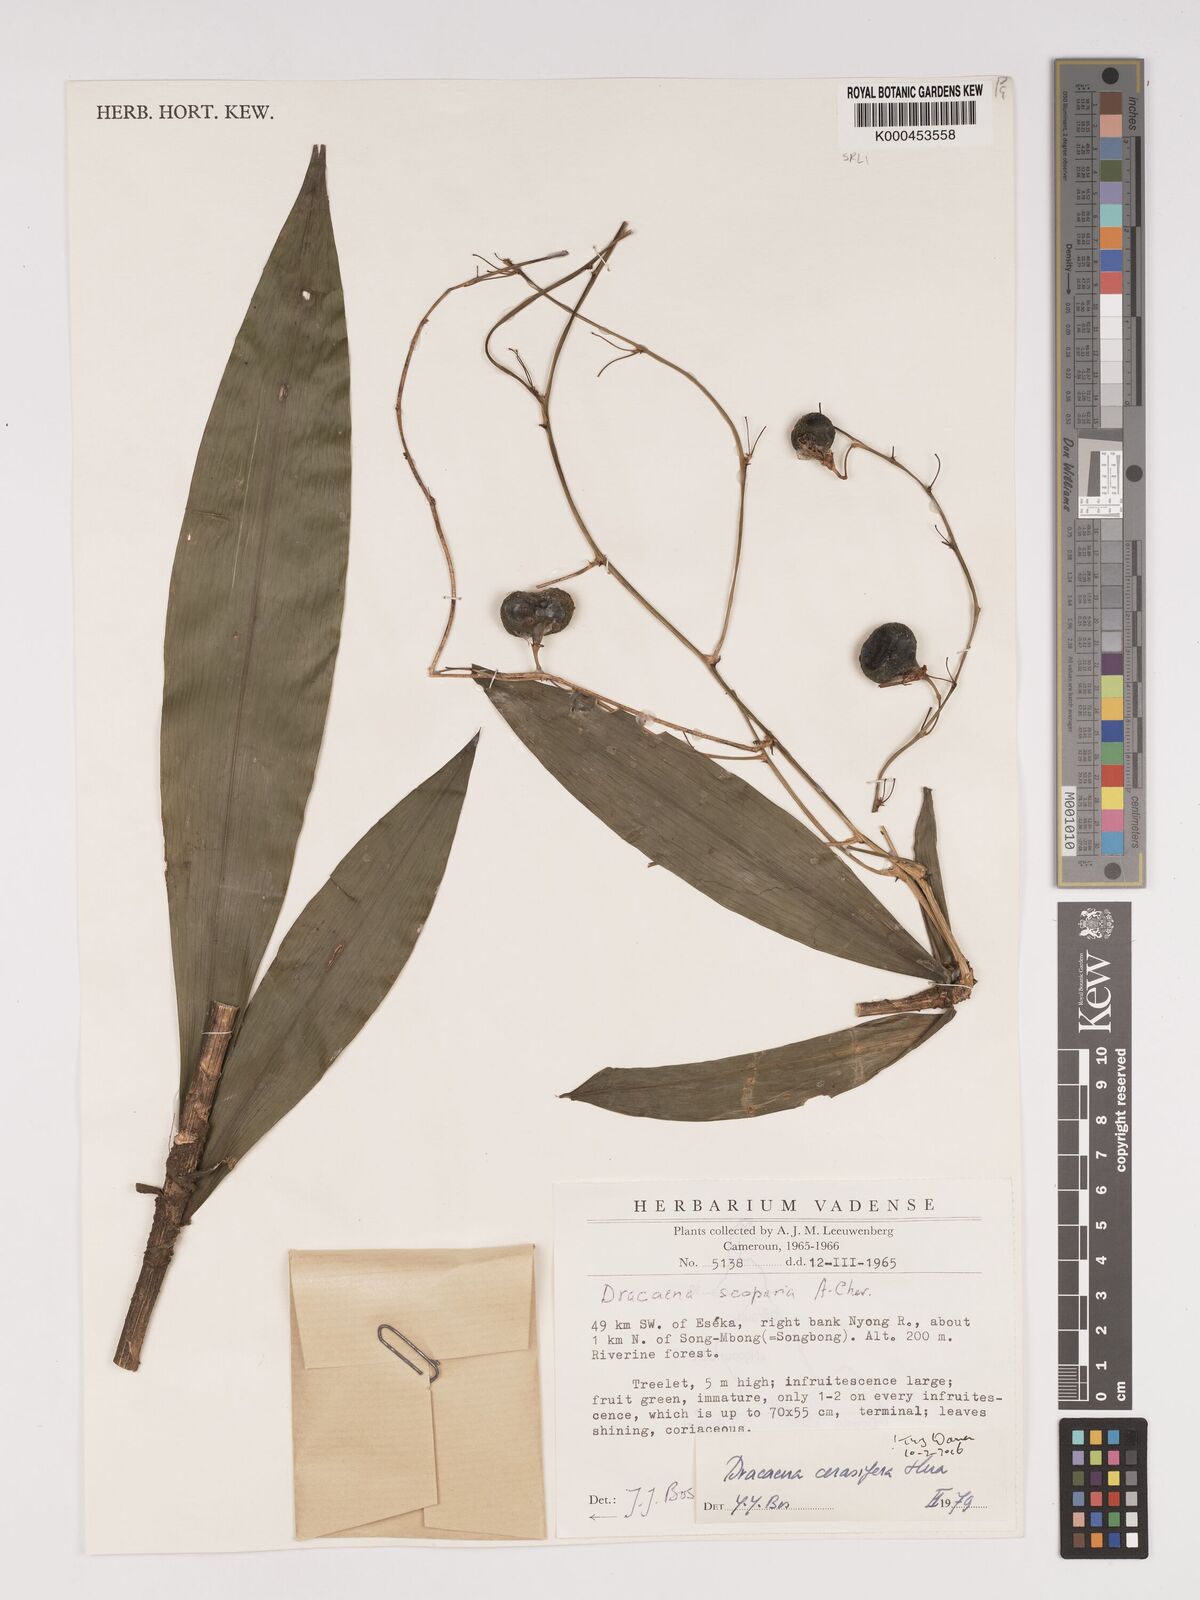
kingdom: Plantae
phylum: Tracheophyta
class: Liliopsida
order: Asparagales
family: Asparagaceae
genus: Dracaena
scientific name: Dracaena cerasifera
